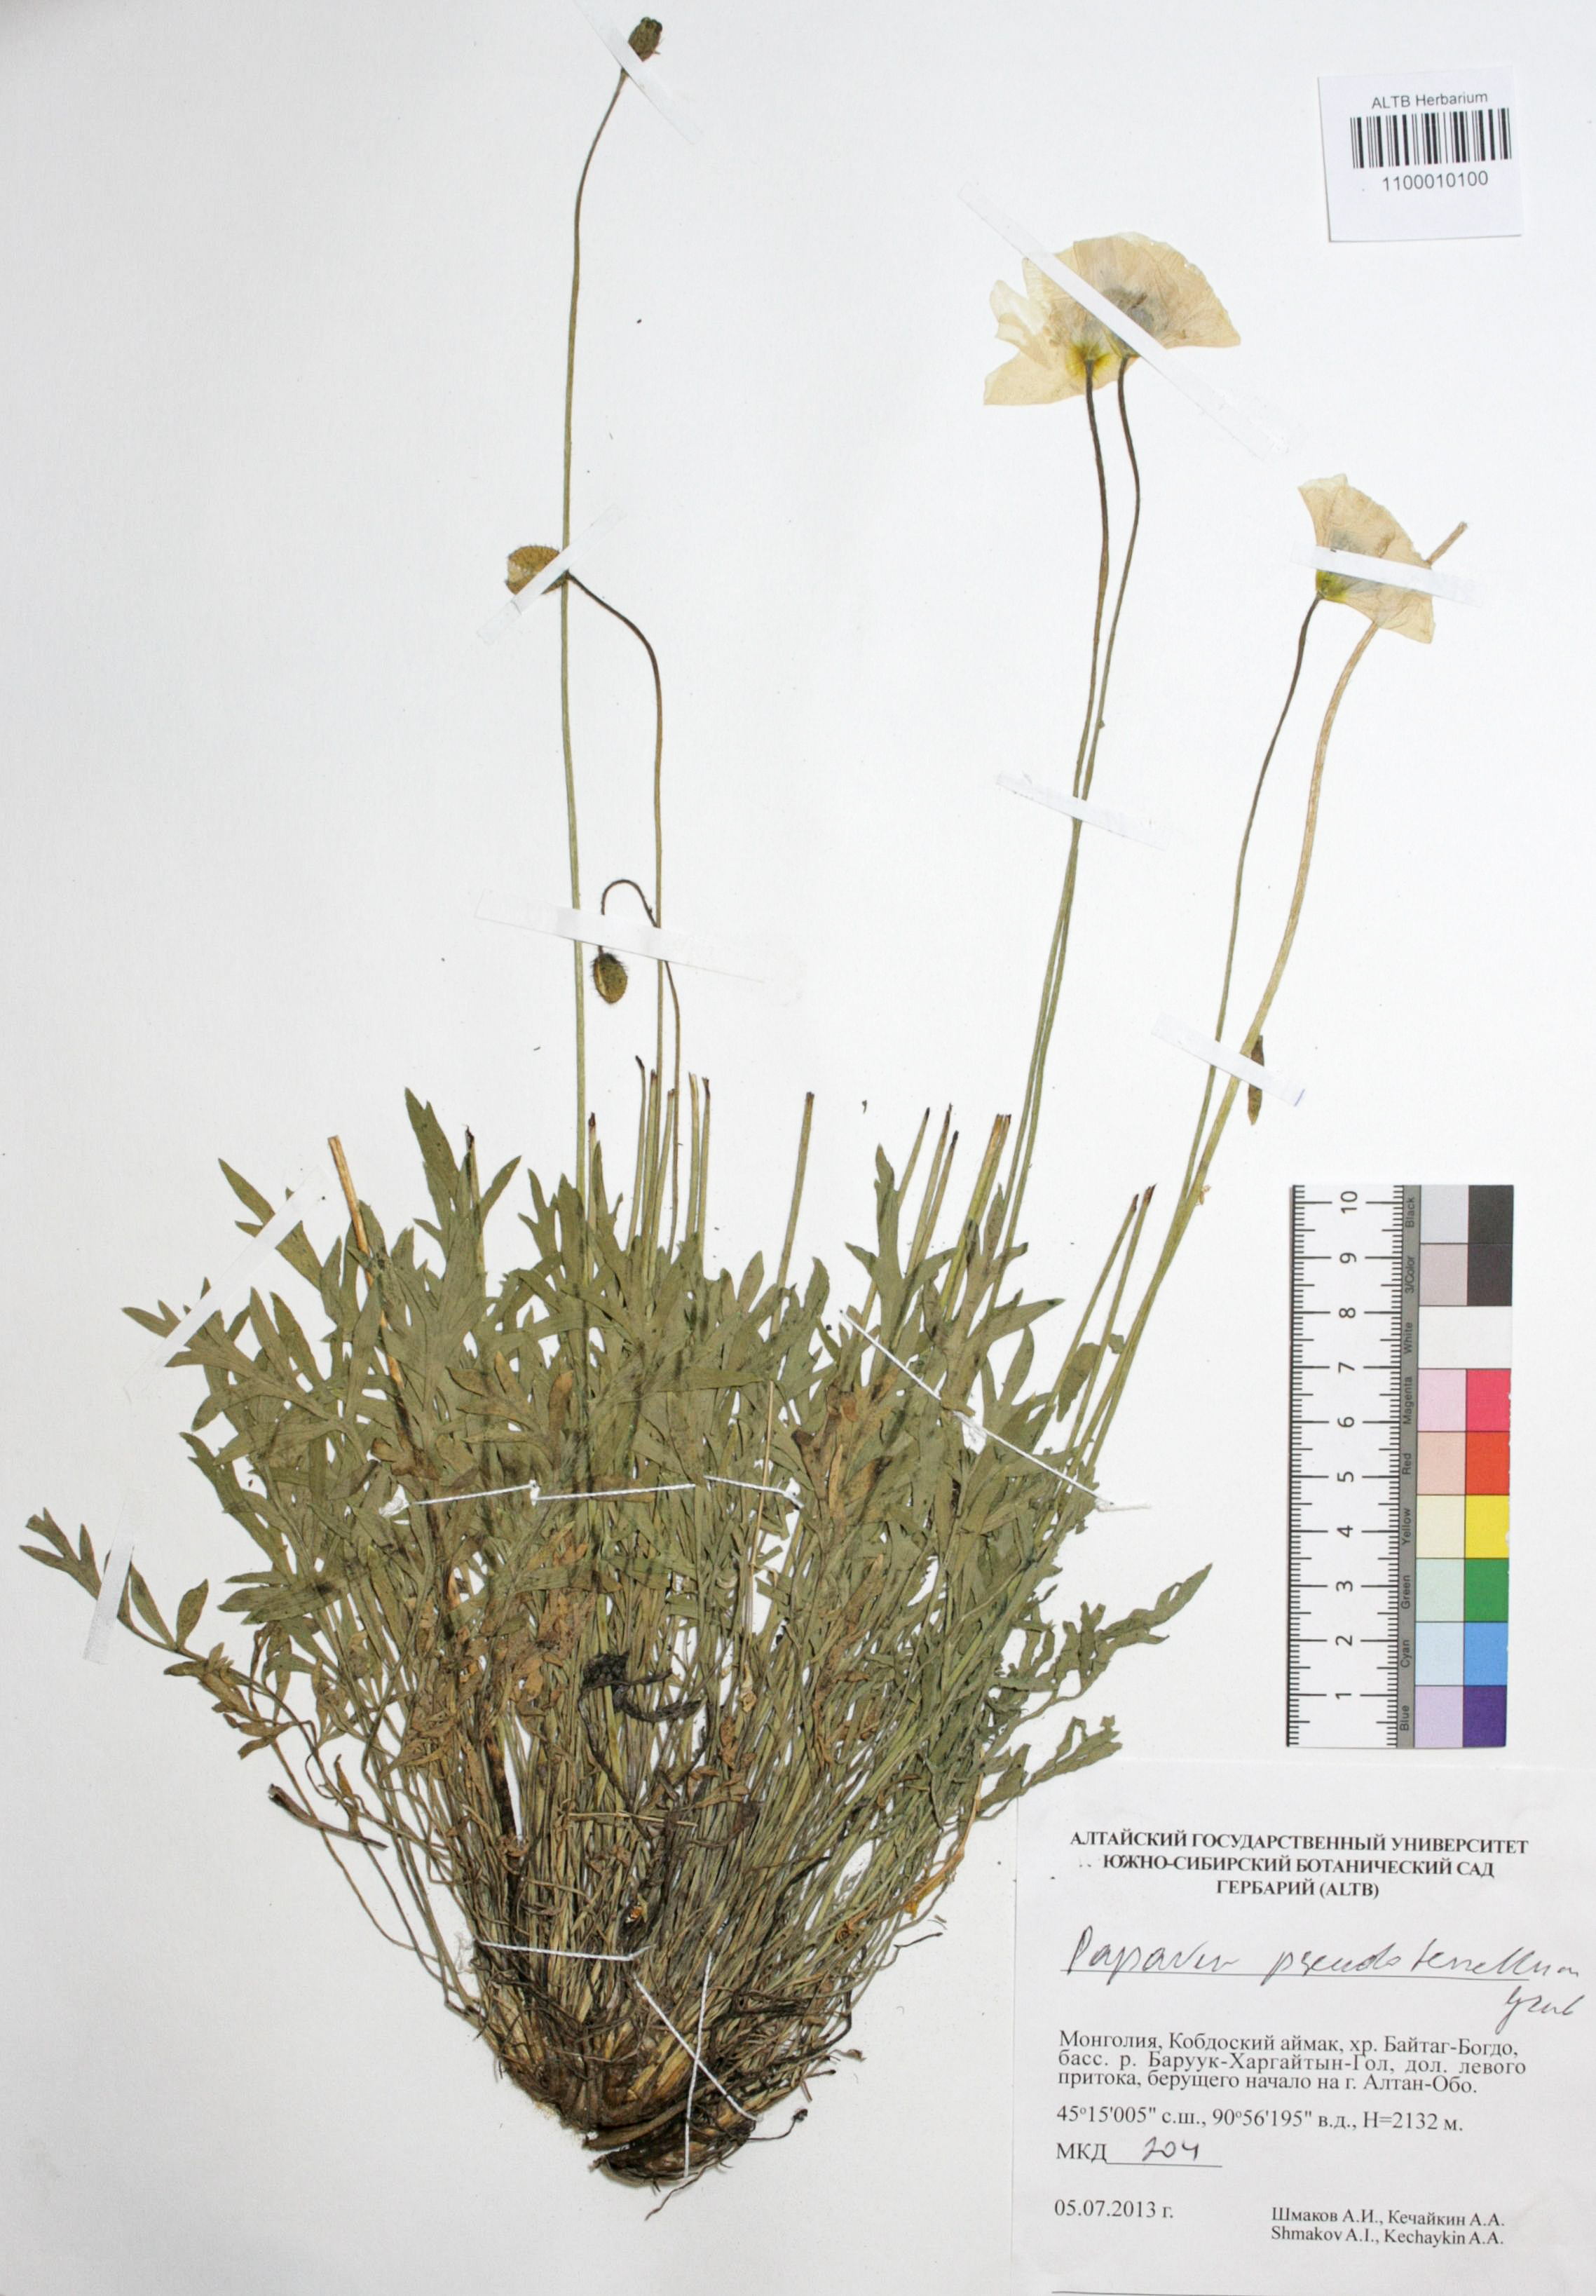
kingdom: Plantae
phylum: Tracheophyta
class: Magnoliopsida
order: Ranunculales
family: Papaveraceae
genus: Papaver
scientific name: Papaver croceum
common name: Siberian poppy
